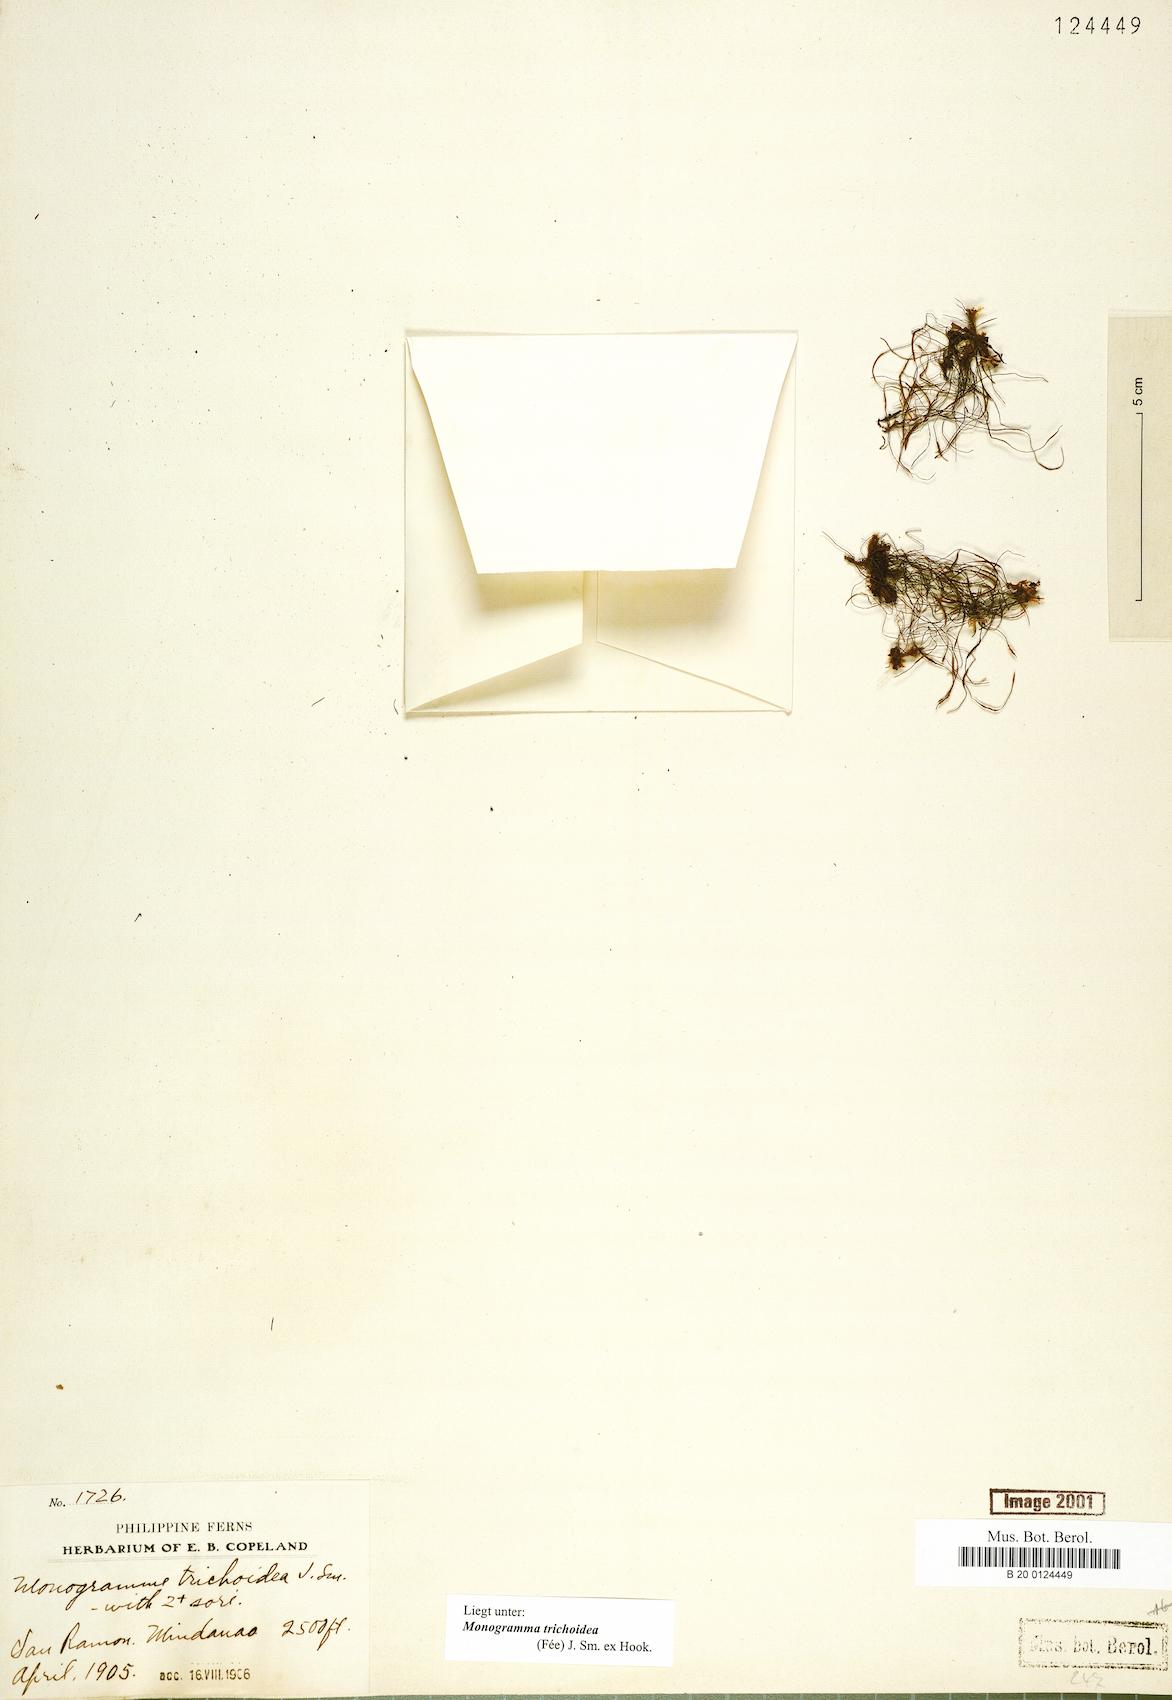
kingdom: Plantae
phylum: Tracheophyta
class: Polypodiopsida
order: Polypodiales
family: Pteridaceae
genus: Vaginularia
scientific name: Vaginularia trichoidea
